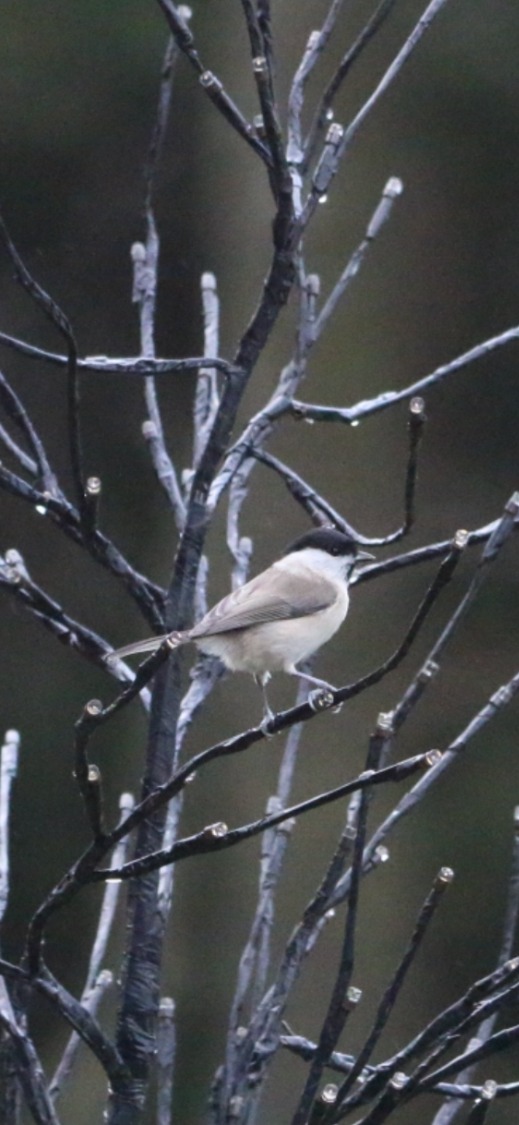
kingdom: Animalia
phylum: Chordata
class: Aves
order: Passeriformes
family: Paridae
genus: Poecile
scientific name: Poecile palustris
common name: Sumpmejse
